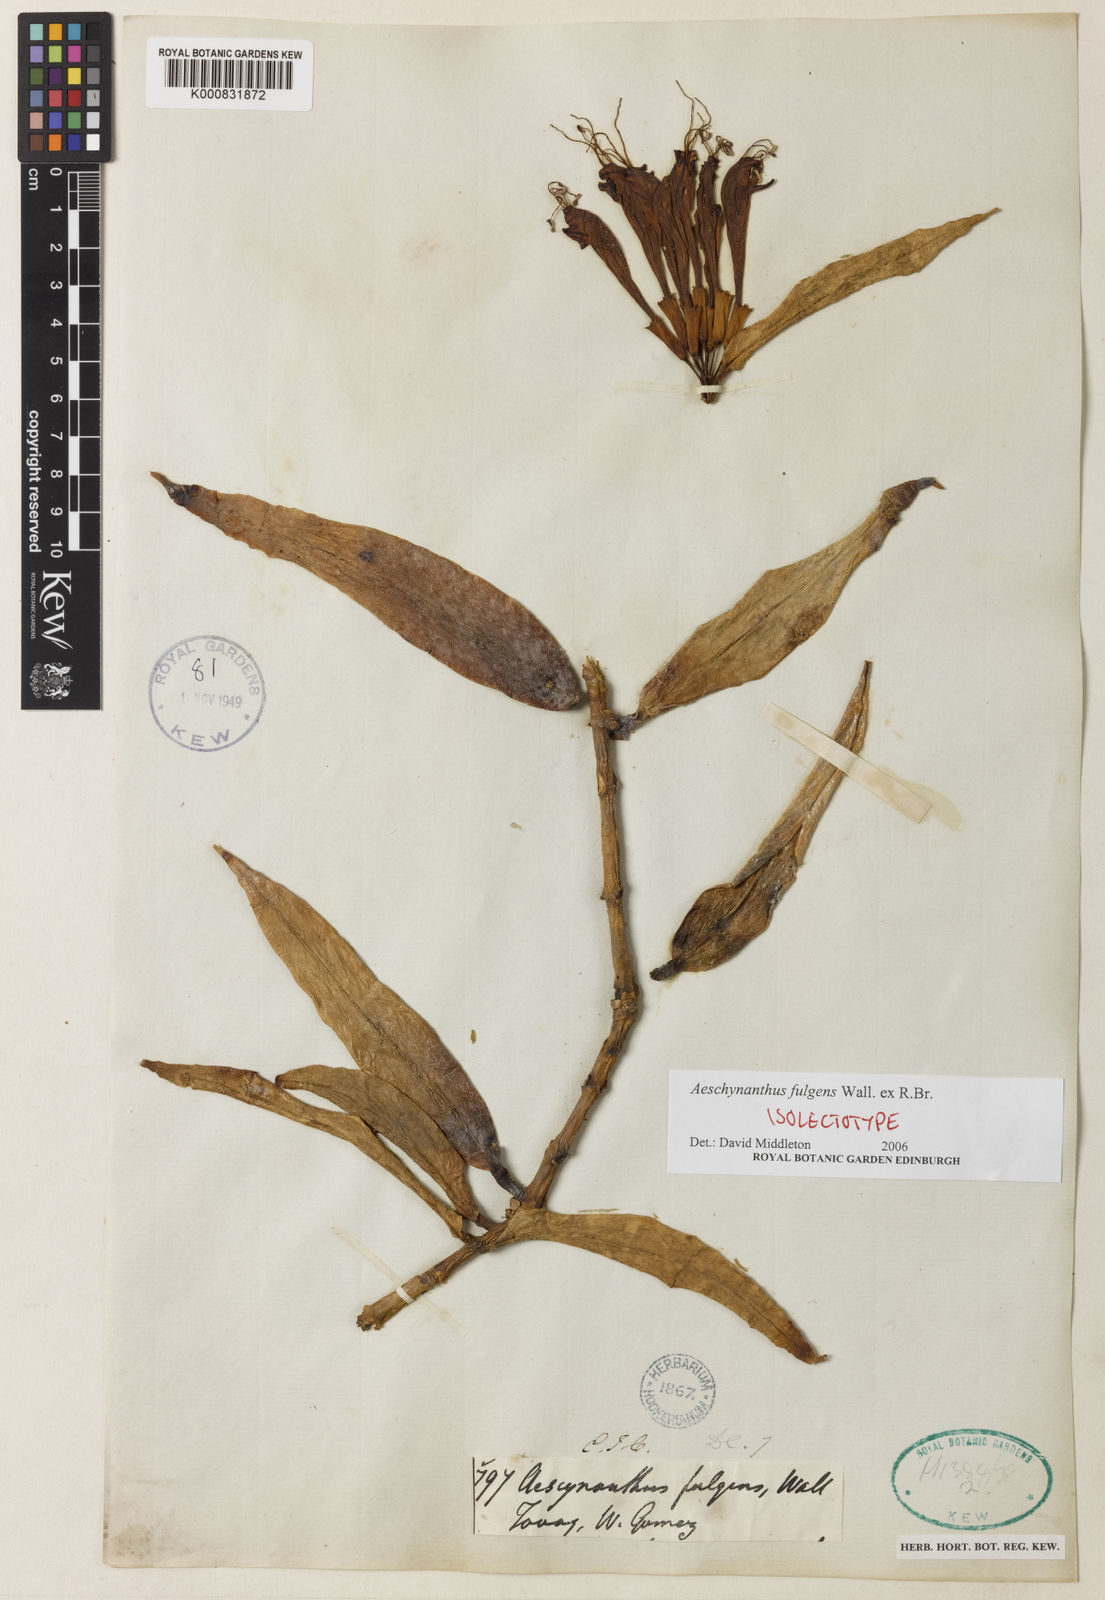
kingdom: Plantae
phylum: Tracheophyta
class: Magnoliopsida
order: Lamiales
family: Gesneriaceae
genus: Aeschynanthus
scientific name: Aeschynanthus fulgens
